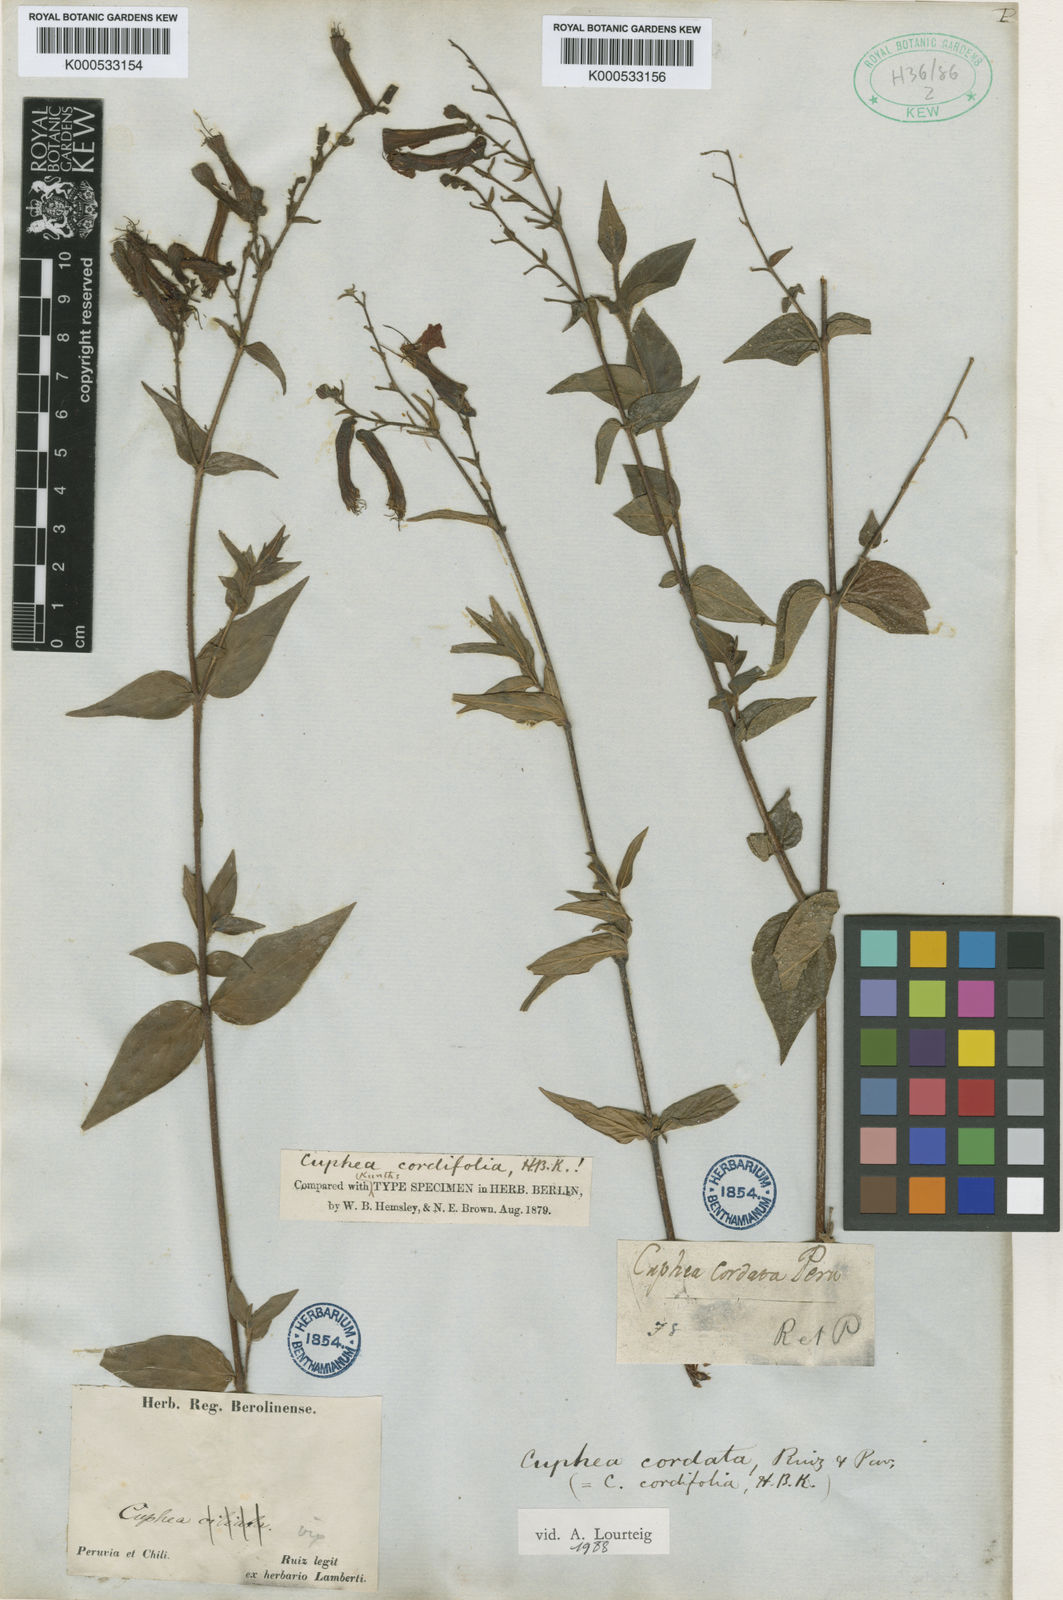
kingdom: Plantae
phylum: Tracheophyta
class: Magnoliopsida
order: Myrtales
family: Lythraceae
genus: Cuphea
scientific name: Cuphea cordata
